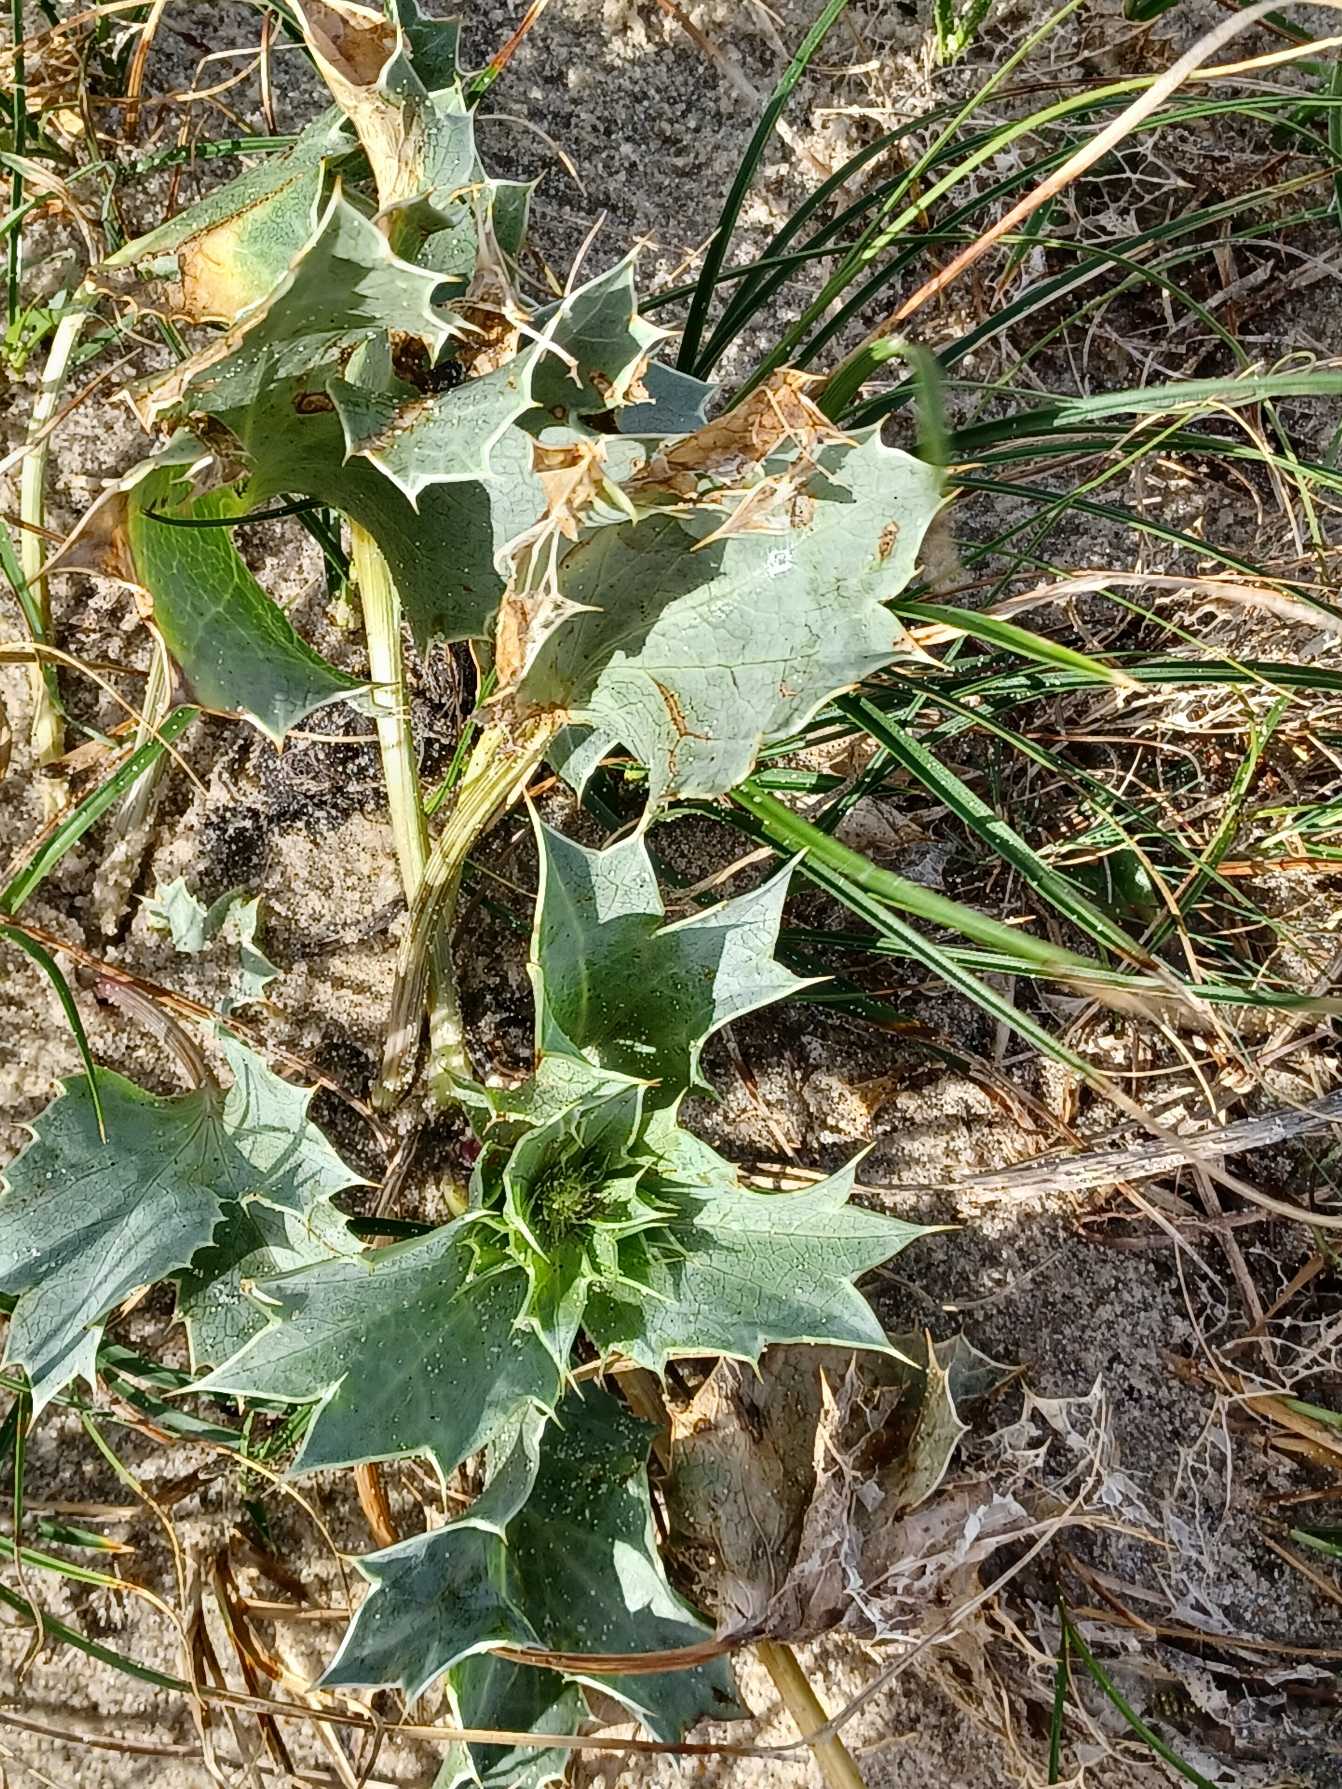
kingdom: Plantae
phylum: Tracheophyta
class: Magnoliopsida
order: Apiales
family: Apiaceae
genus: Eryngium
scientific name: Eryngium maritimum
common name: Strand-mandstro
